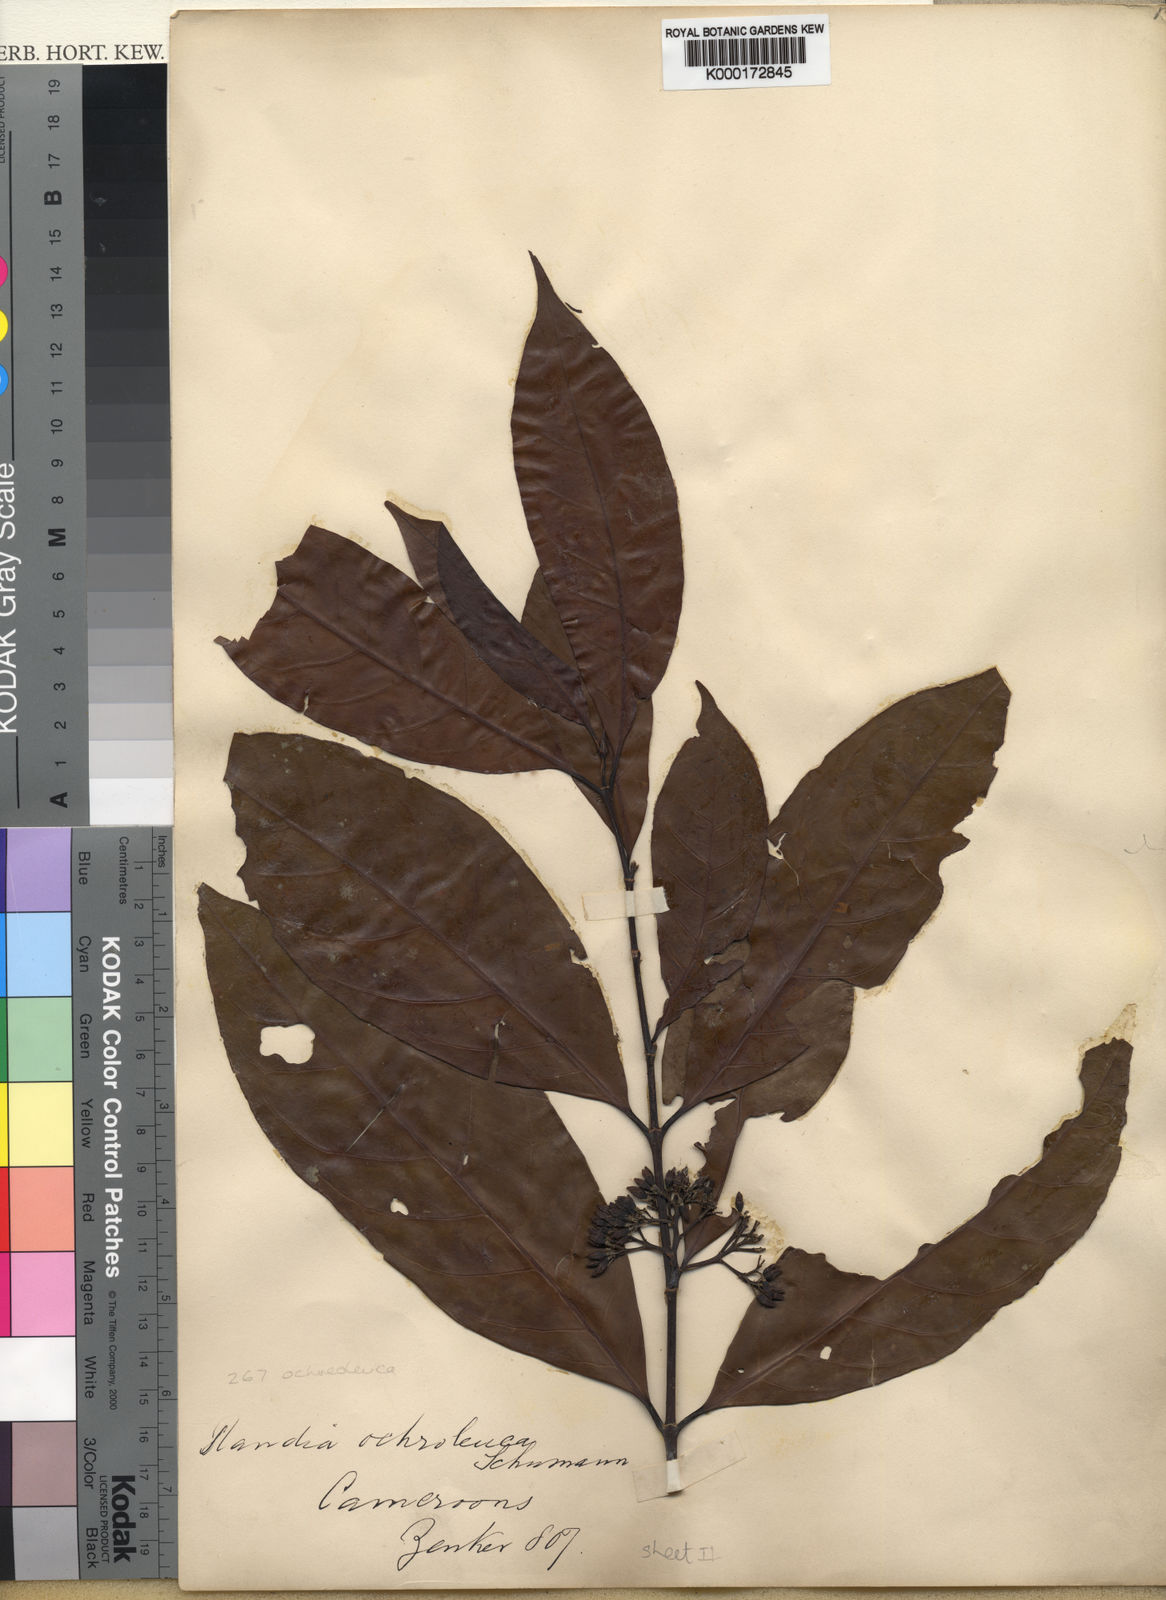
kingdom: Plantae
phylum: Tracheophyta
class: Magnoliopsida
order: Gentianales
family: Rubiaceae
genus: Aidia
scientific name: Aidia ochroleuca
